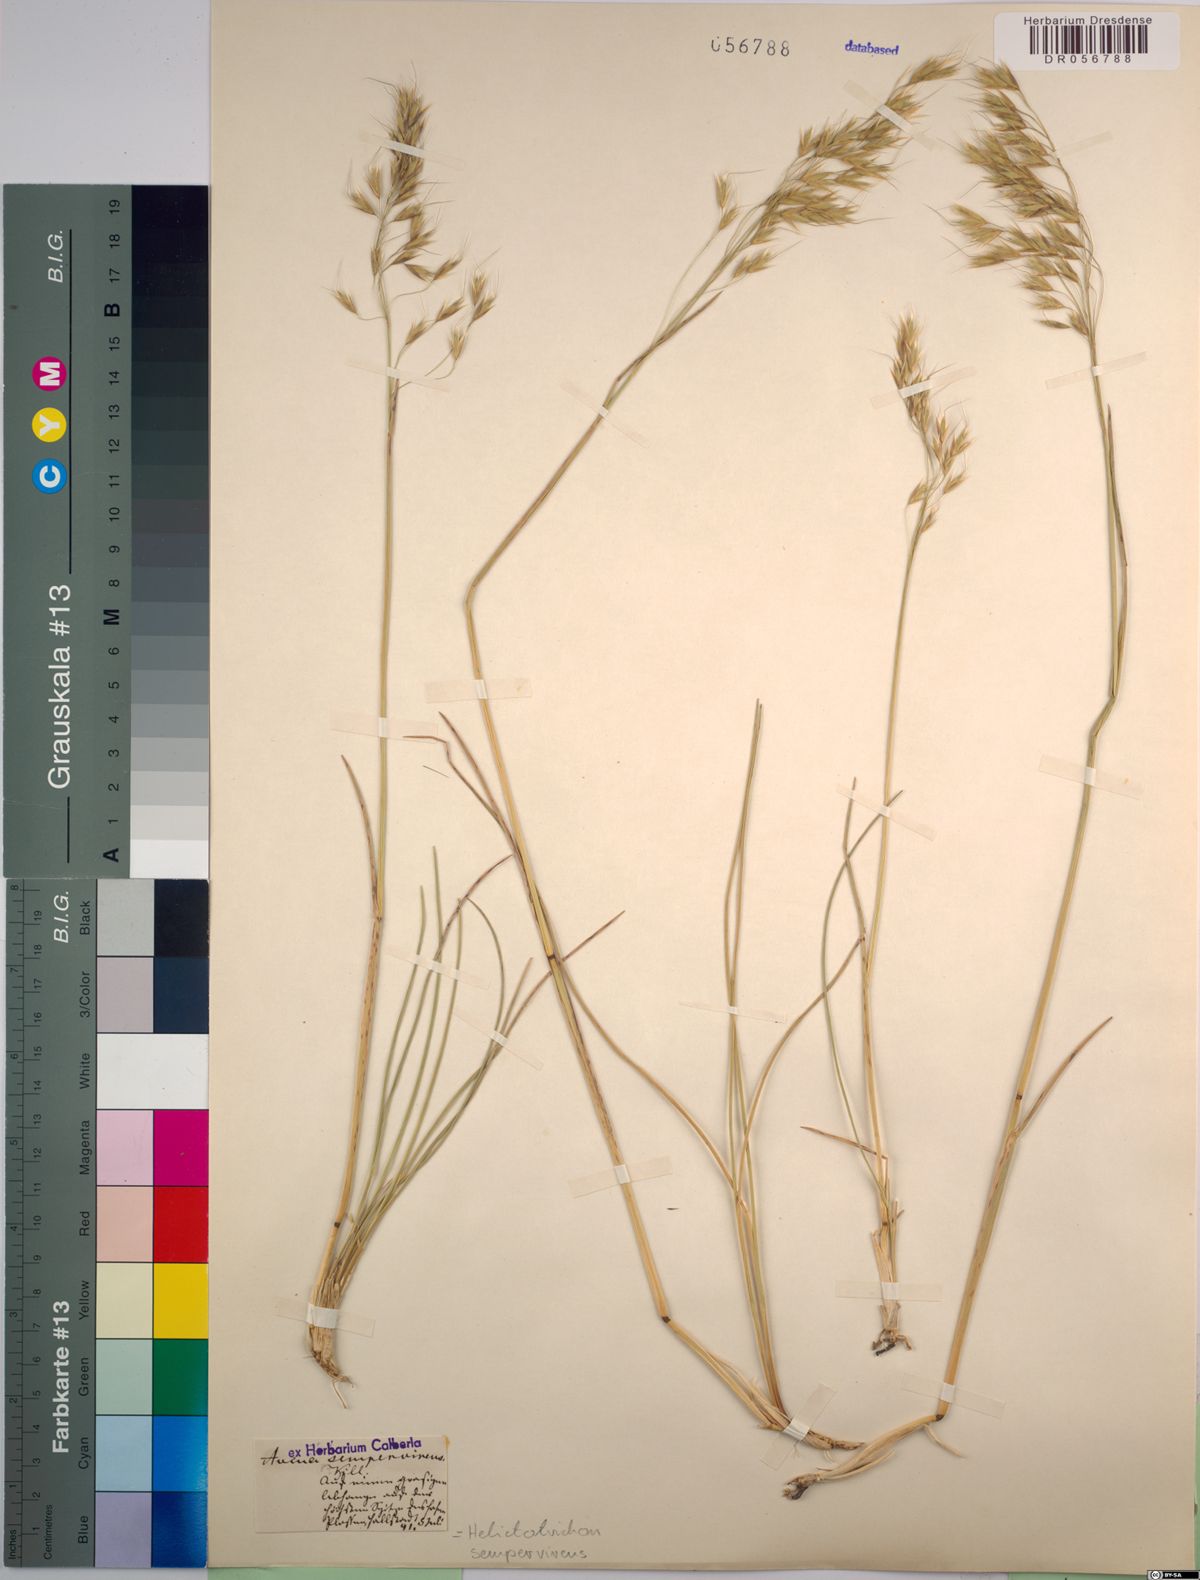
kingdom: Plantae
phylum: Tracheophyta
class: Liliopsida
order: Poales
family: Poaceae
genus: Helictotrichon
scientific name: Helictotrichon sempervirens
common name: Blue oat-grass
